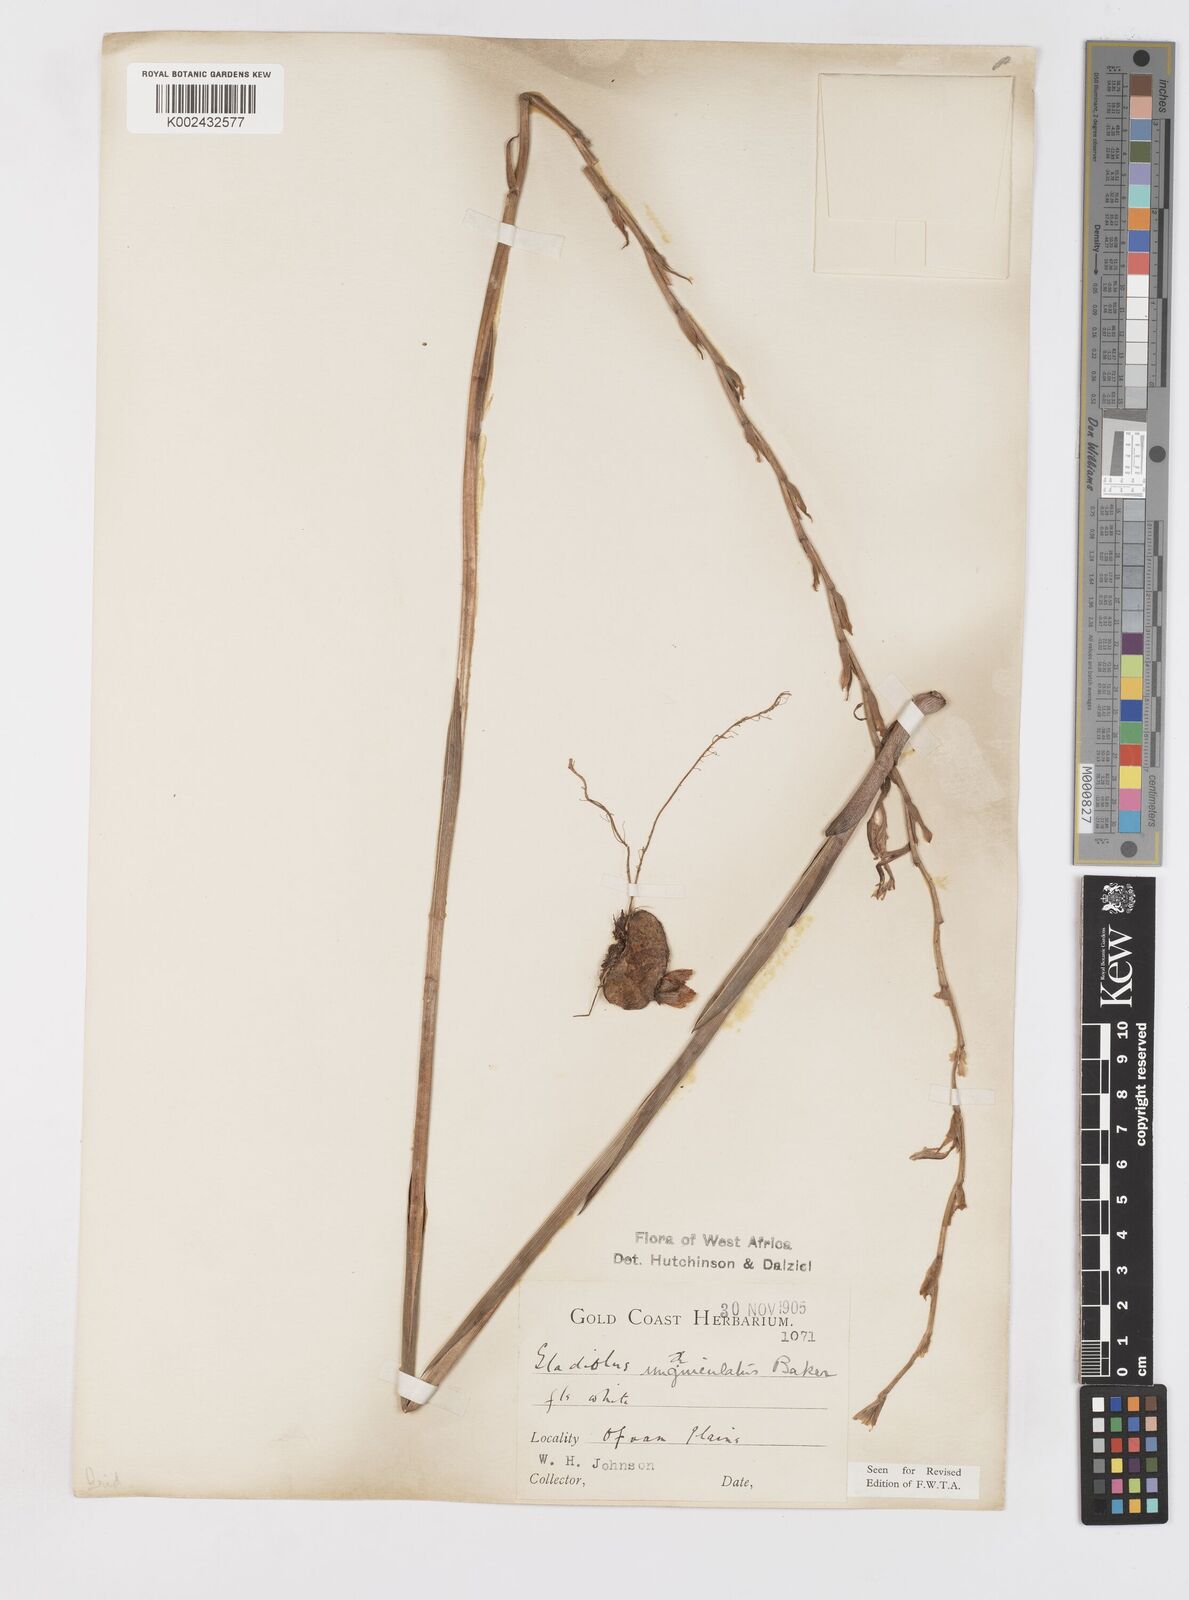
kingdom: Plantae
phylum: Tracheophyta
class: Liliopsida
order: Asparagales
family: Iridaceae
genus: Gladiolus
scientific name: Gladiolus unguiculatus
